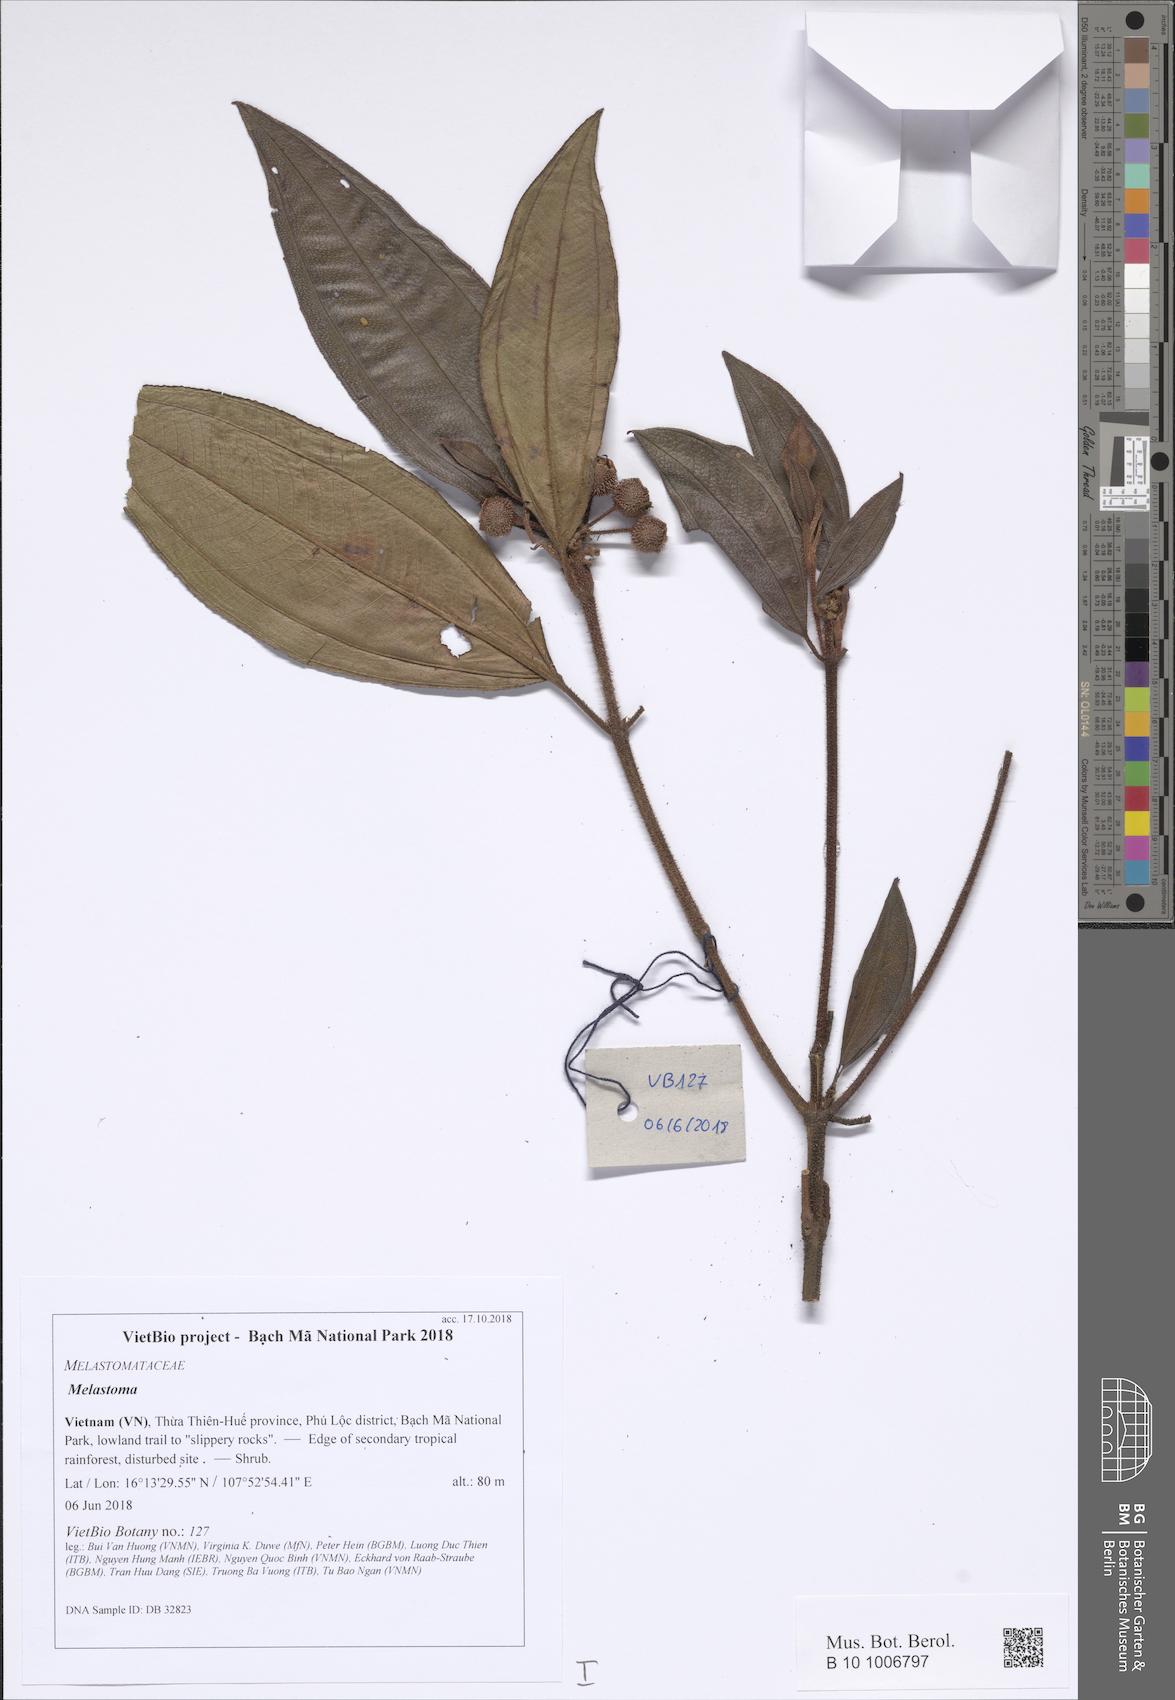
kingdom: Plantae
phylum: Tracheophyta
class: Magnoliopsida
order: Myrtales
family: Melastomataceae
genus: Melastoma
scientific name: Melastoma
